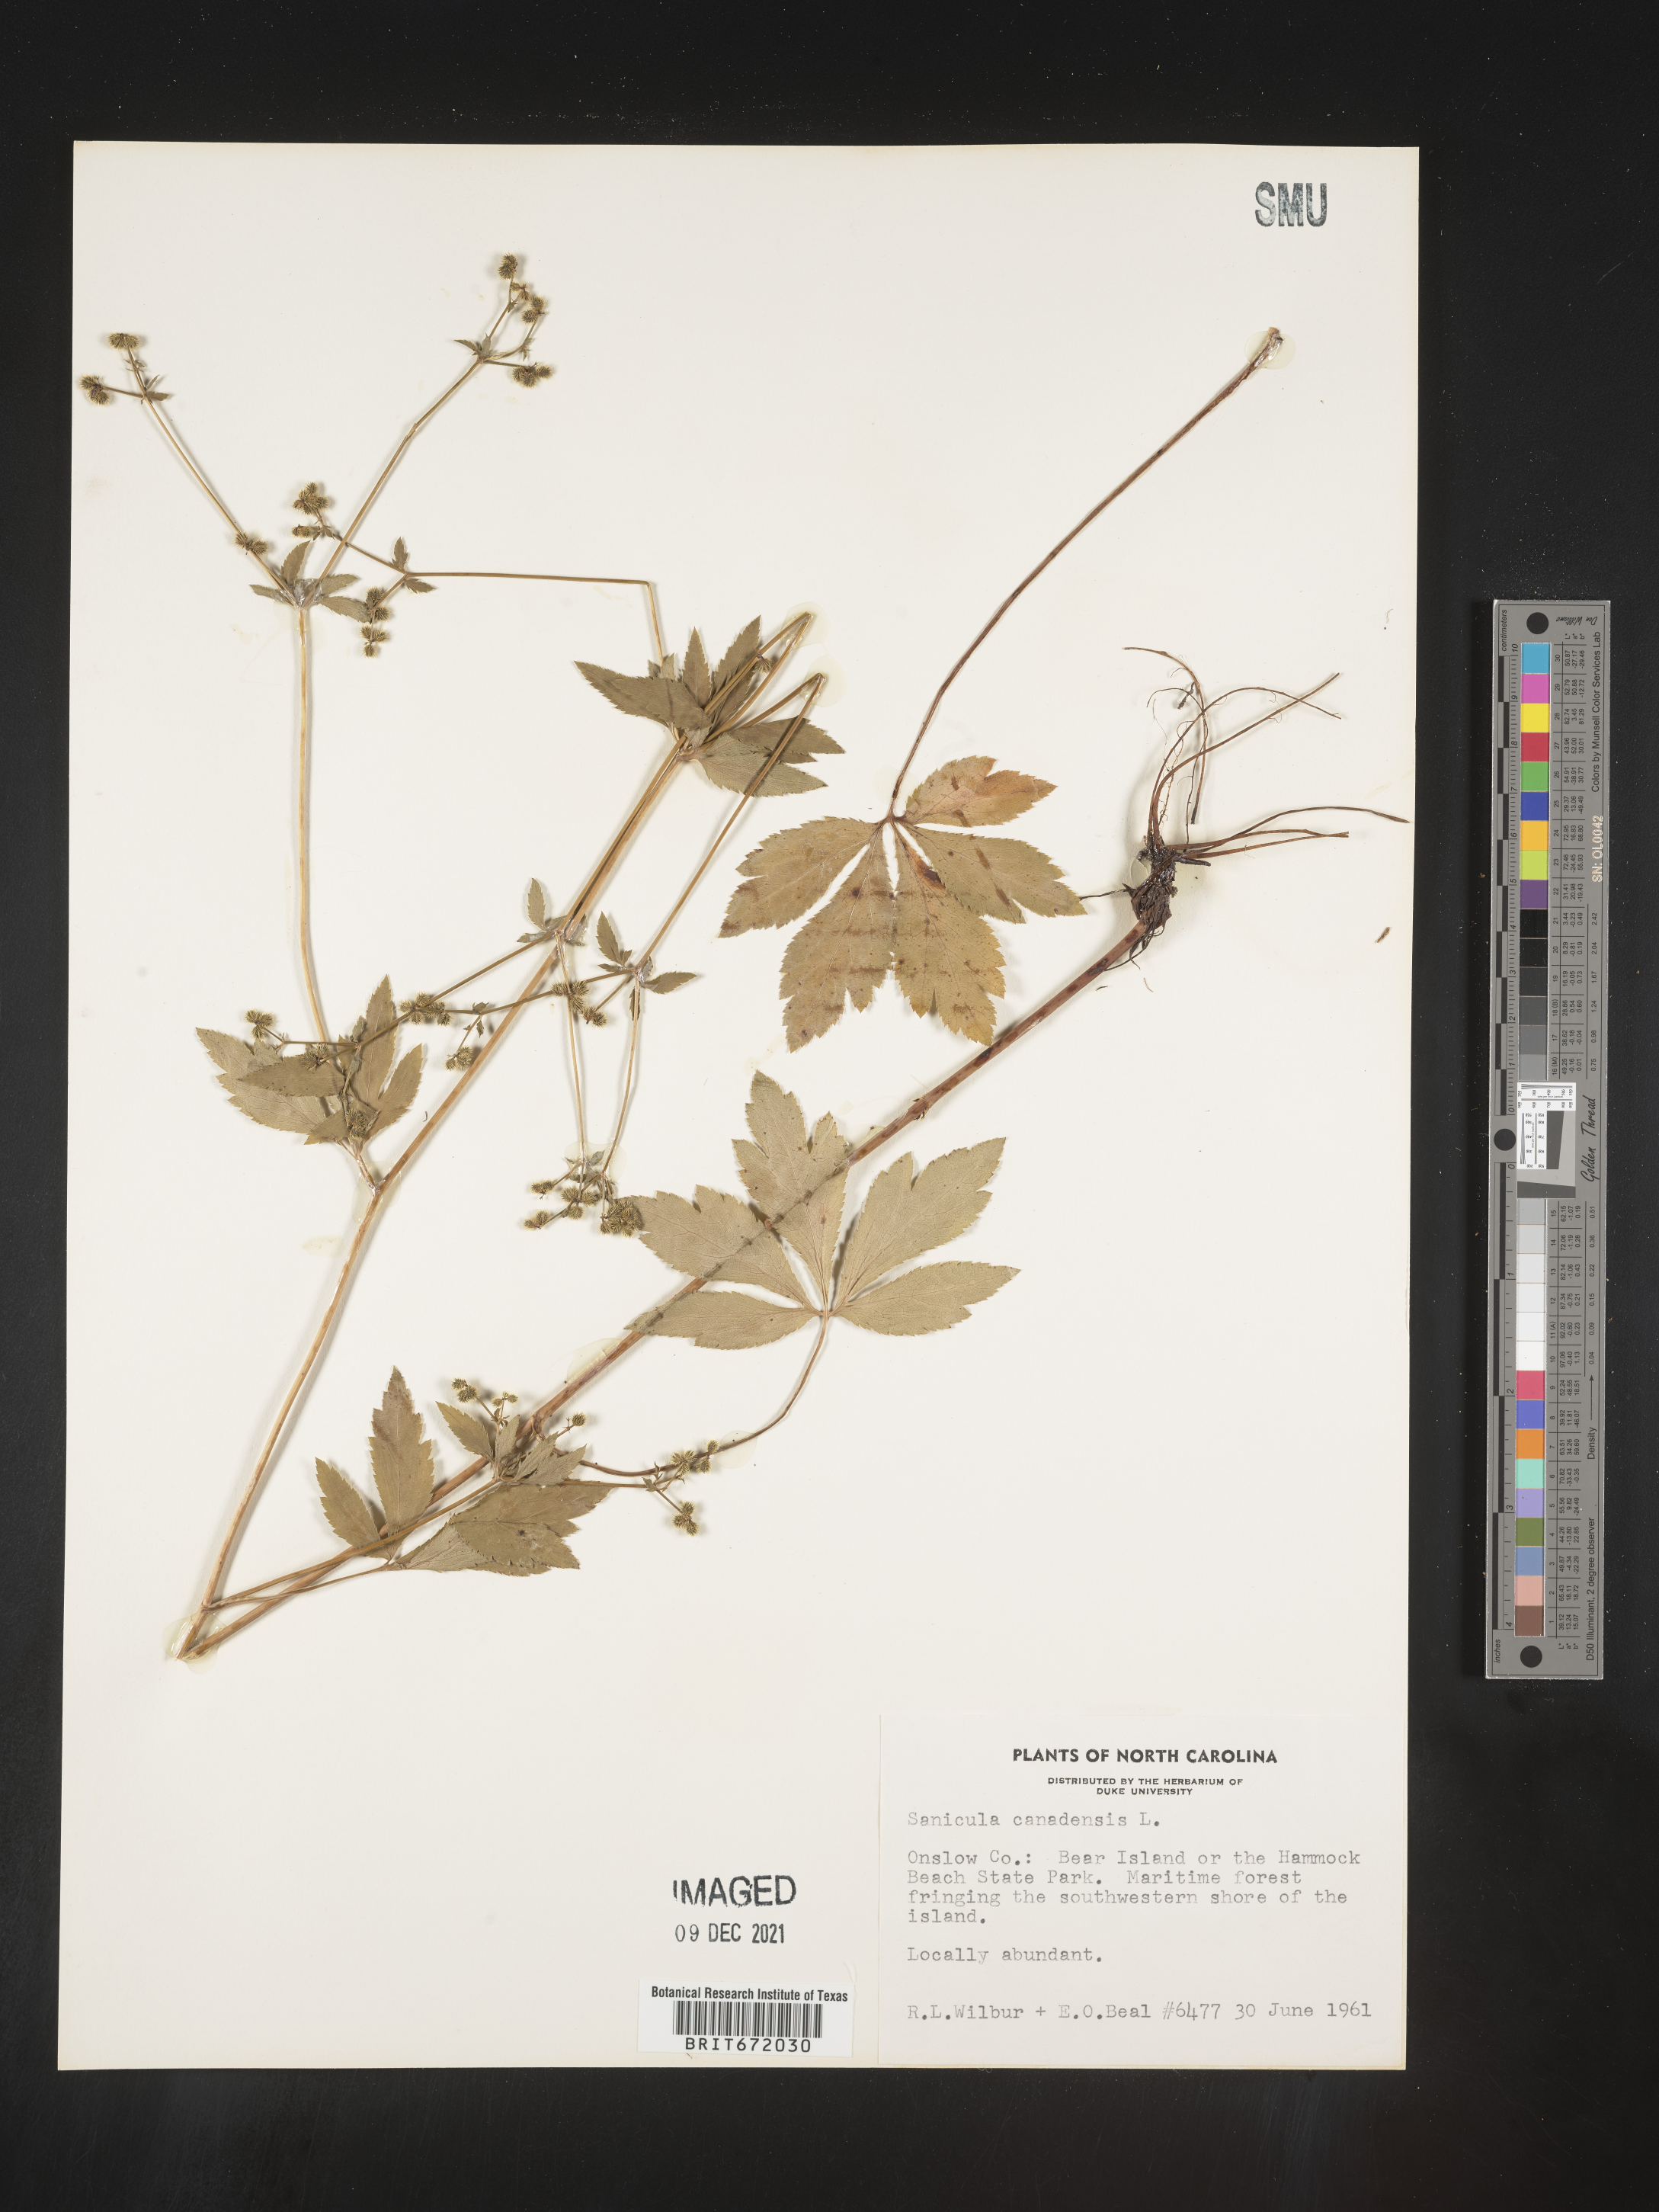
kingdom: Plantae
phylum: Tracheophyta
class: Magnoliopsida
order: Apiales
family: Apiaceae
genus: Sanicula
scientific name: Sanicula canadensis
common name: Canada sanicle
